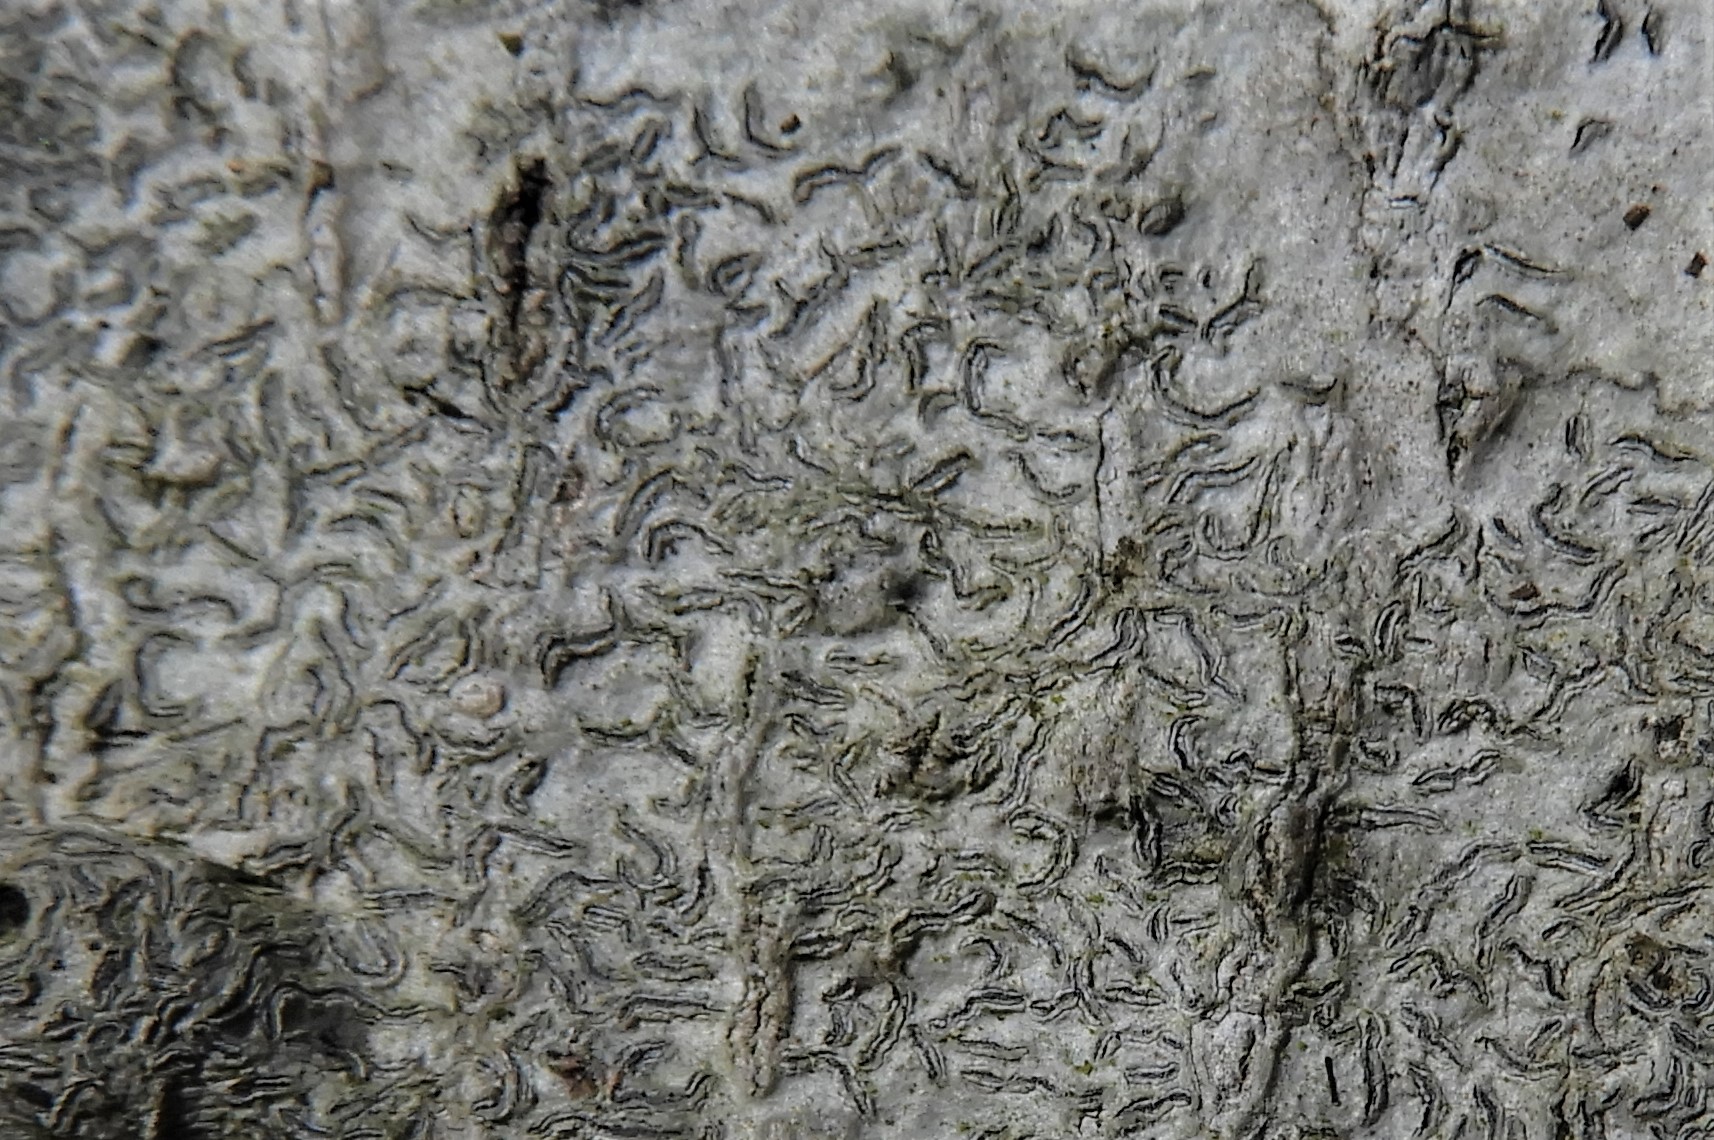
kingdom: Fungi
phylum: Ascomycota
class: Lecanoromycetes
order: Ostropales
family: Graphidaceae
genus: Graphis
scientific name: Graphis scripta
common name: almindelig skriftlav
